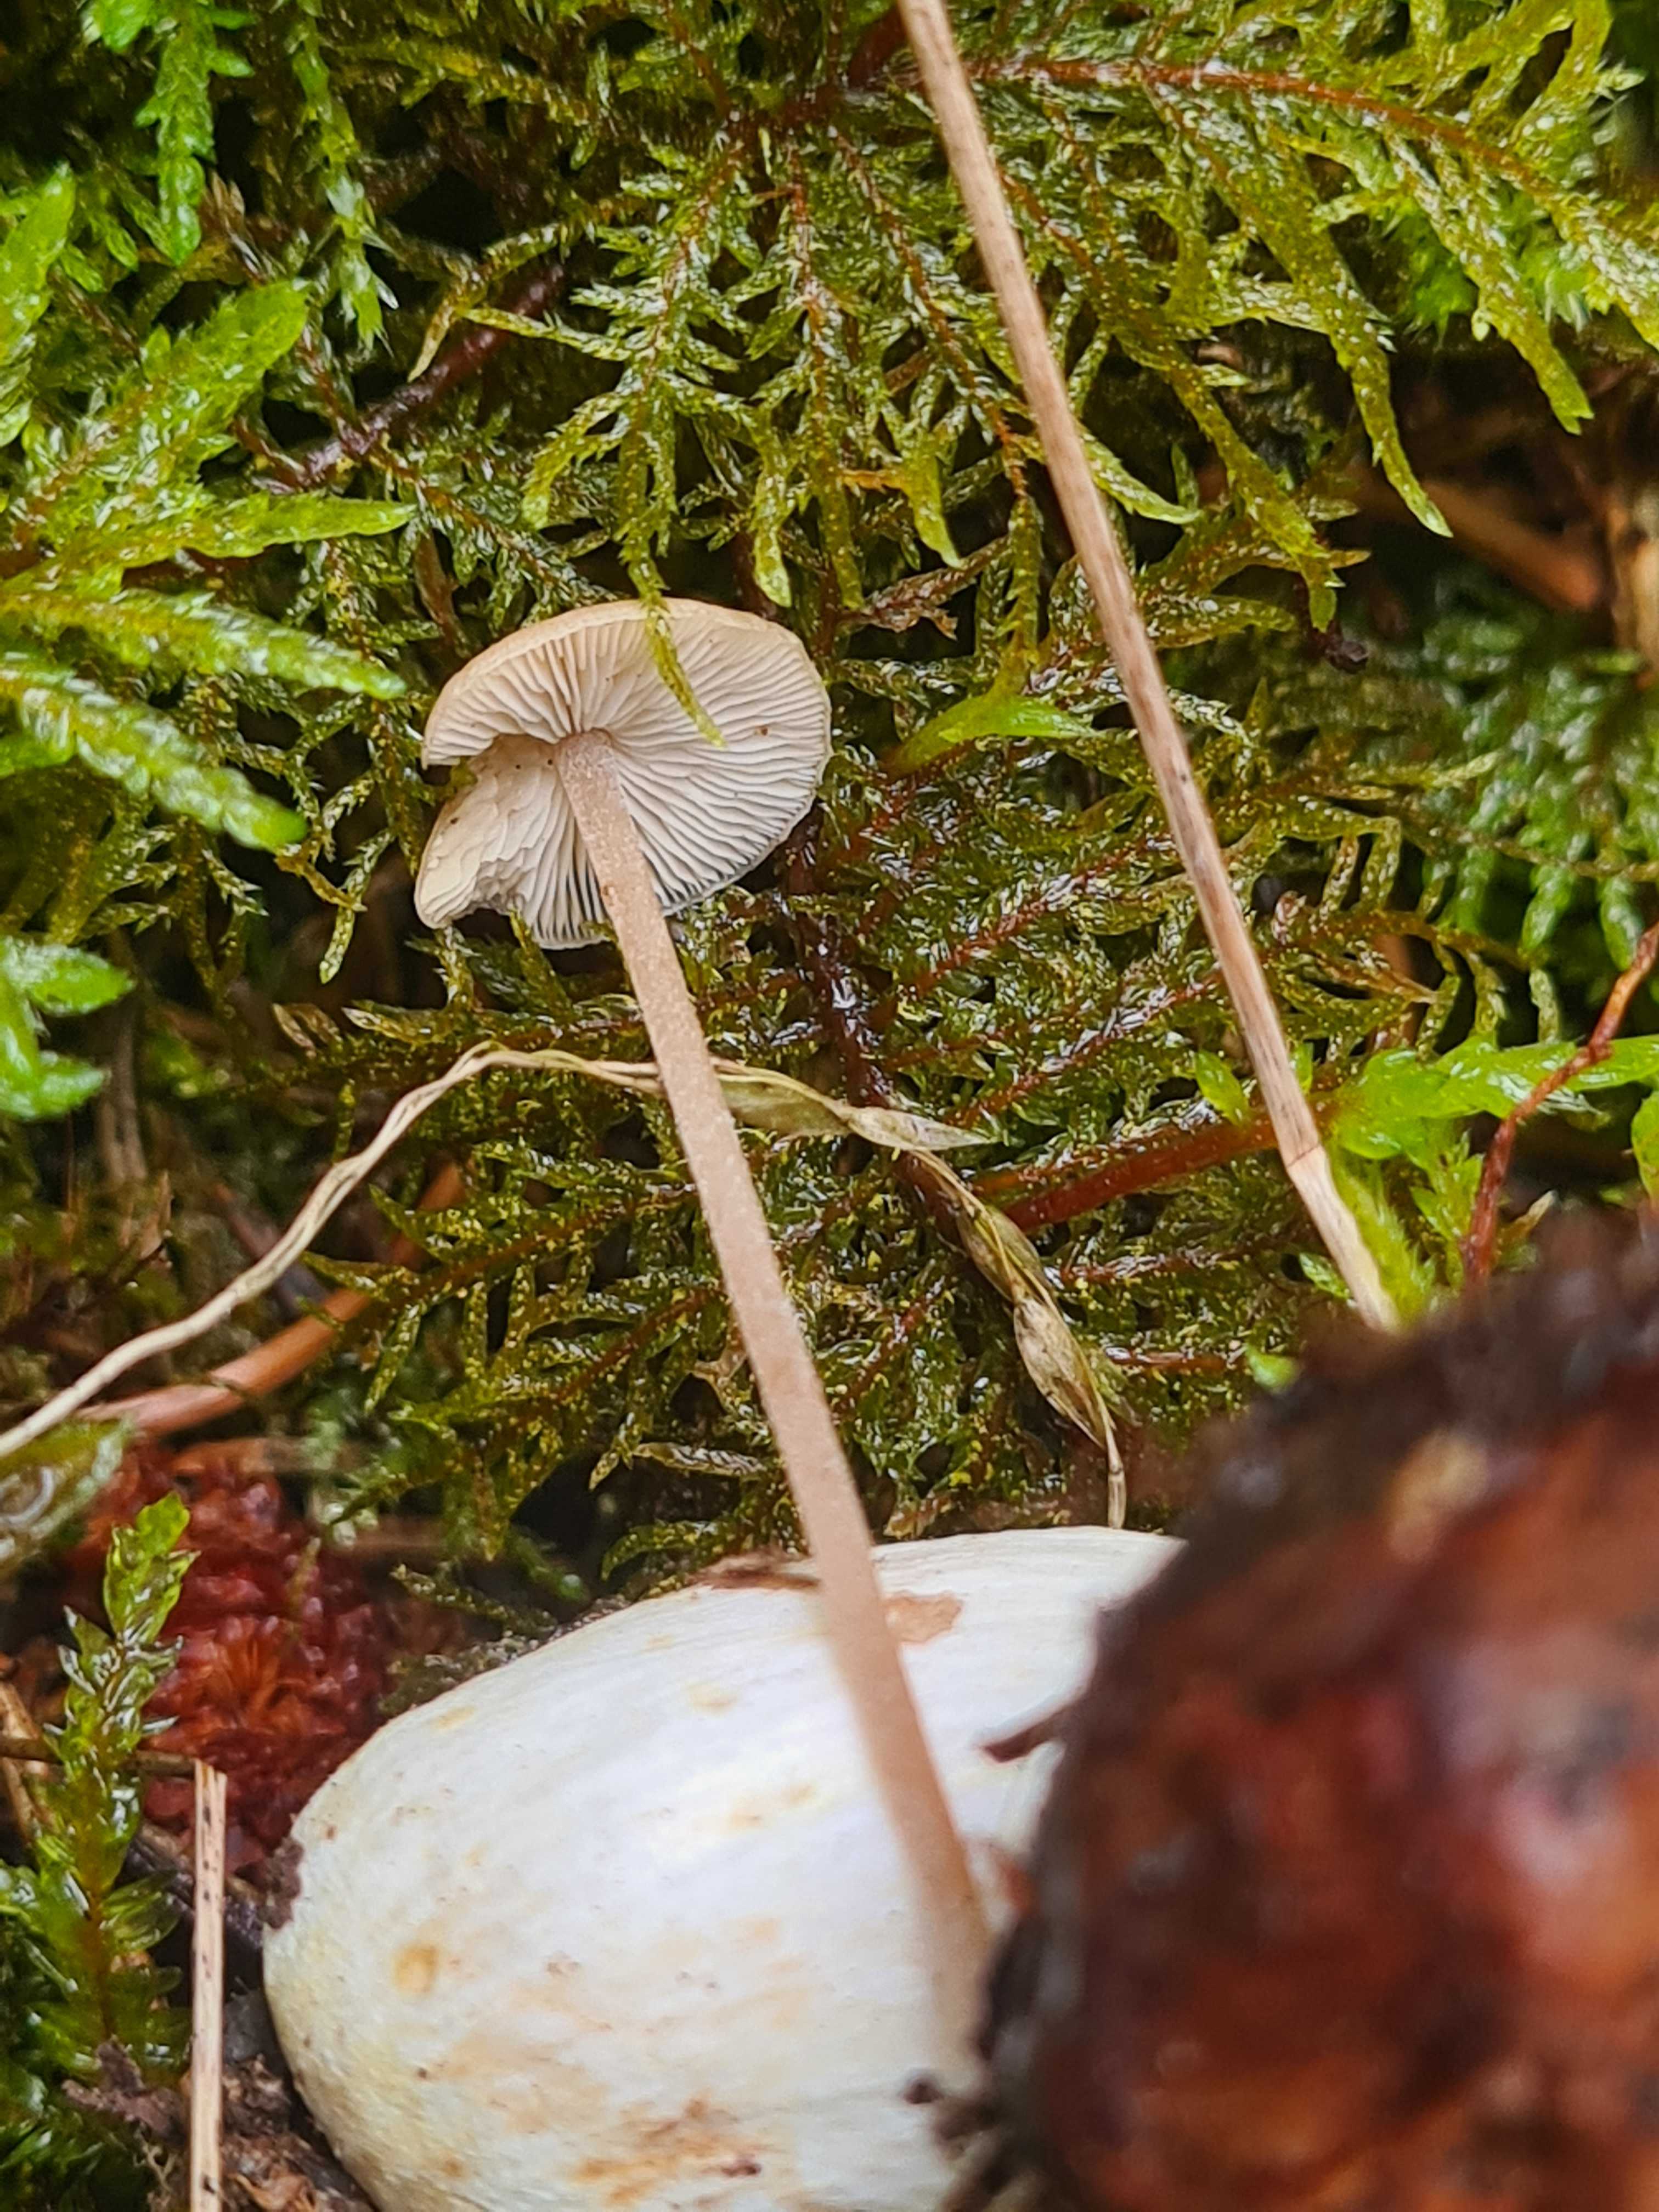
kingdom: Fungi
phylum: Basidiomycota
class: Agaricomycetes
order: Agaricales
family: Marasmiaceae
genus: Baeospora
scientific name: Baeospora myosura
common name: koglebruskhat
